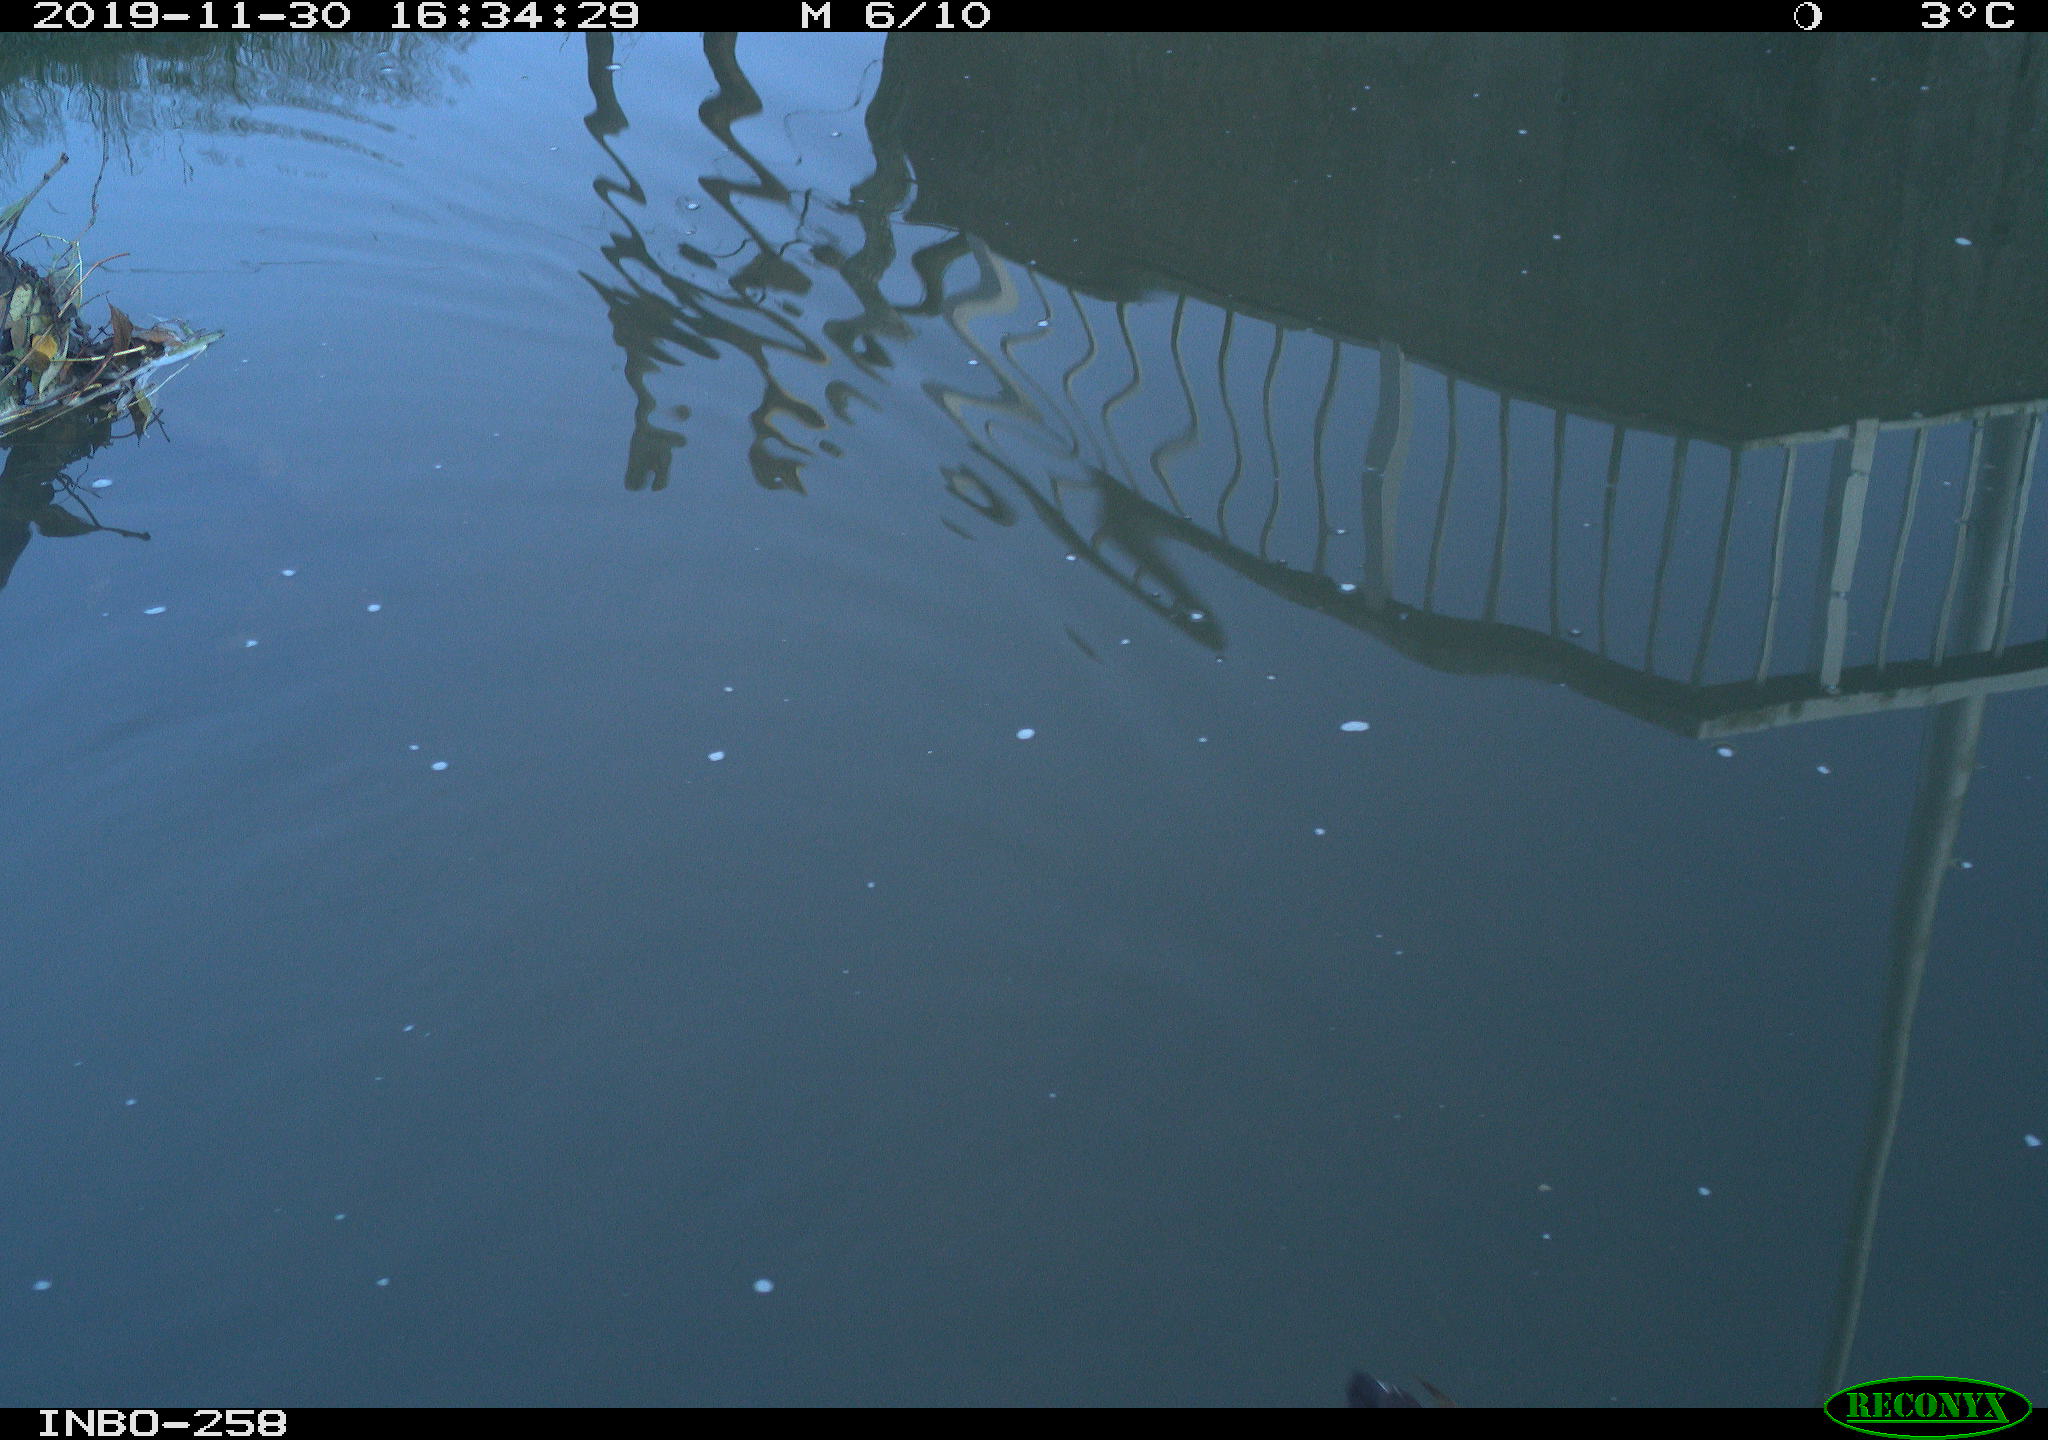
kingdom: Animalia
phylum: Chordata
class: Aves
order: Gruiformes
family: Rallidae
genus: Gallinula
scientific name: Gallinula chloropus
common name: Common moorhen
